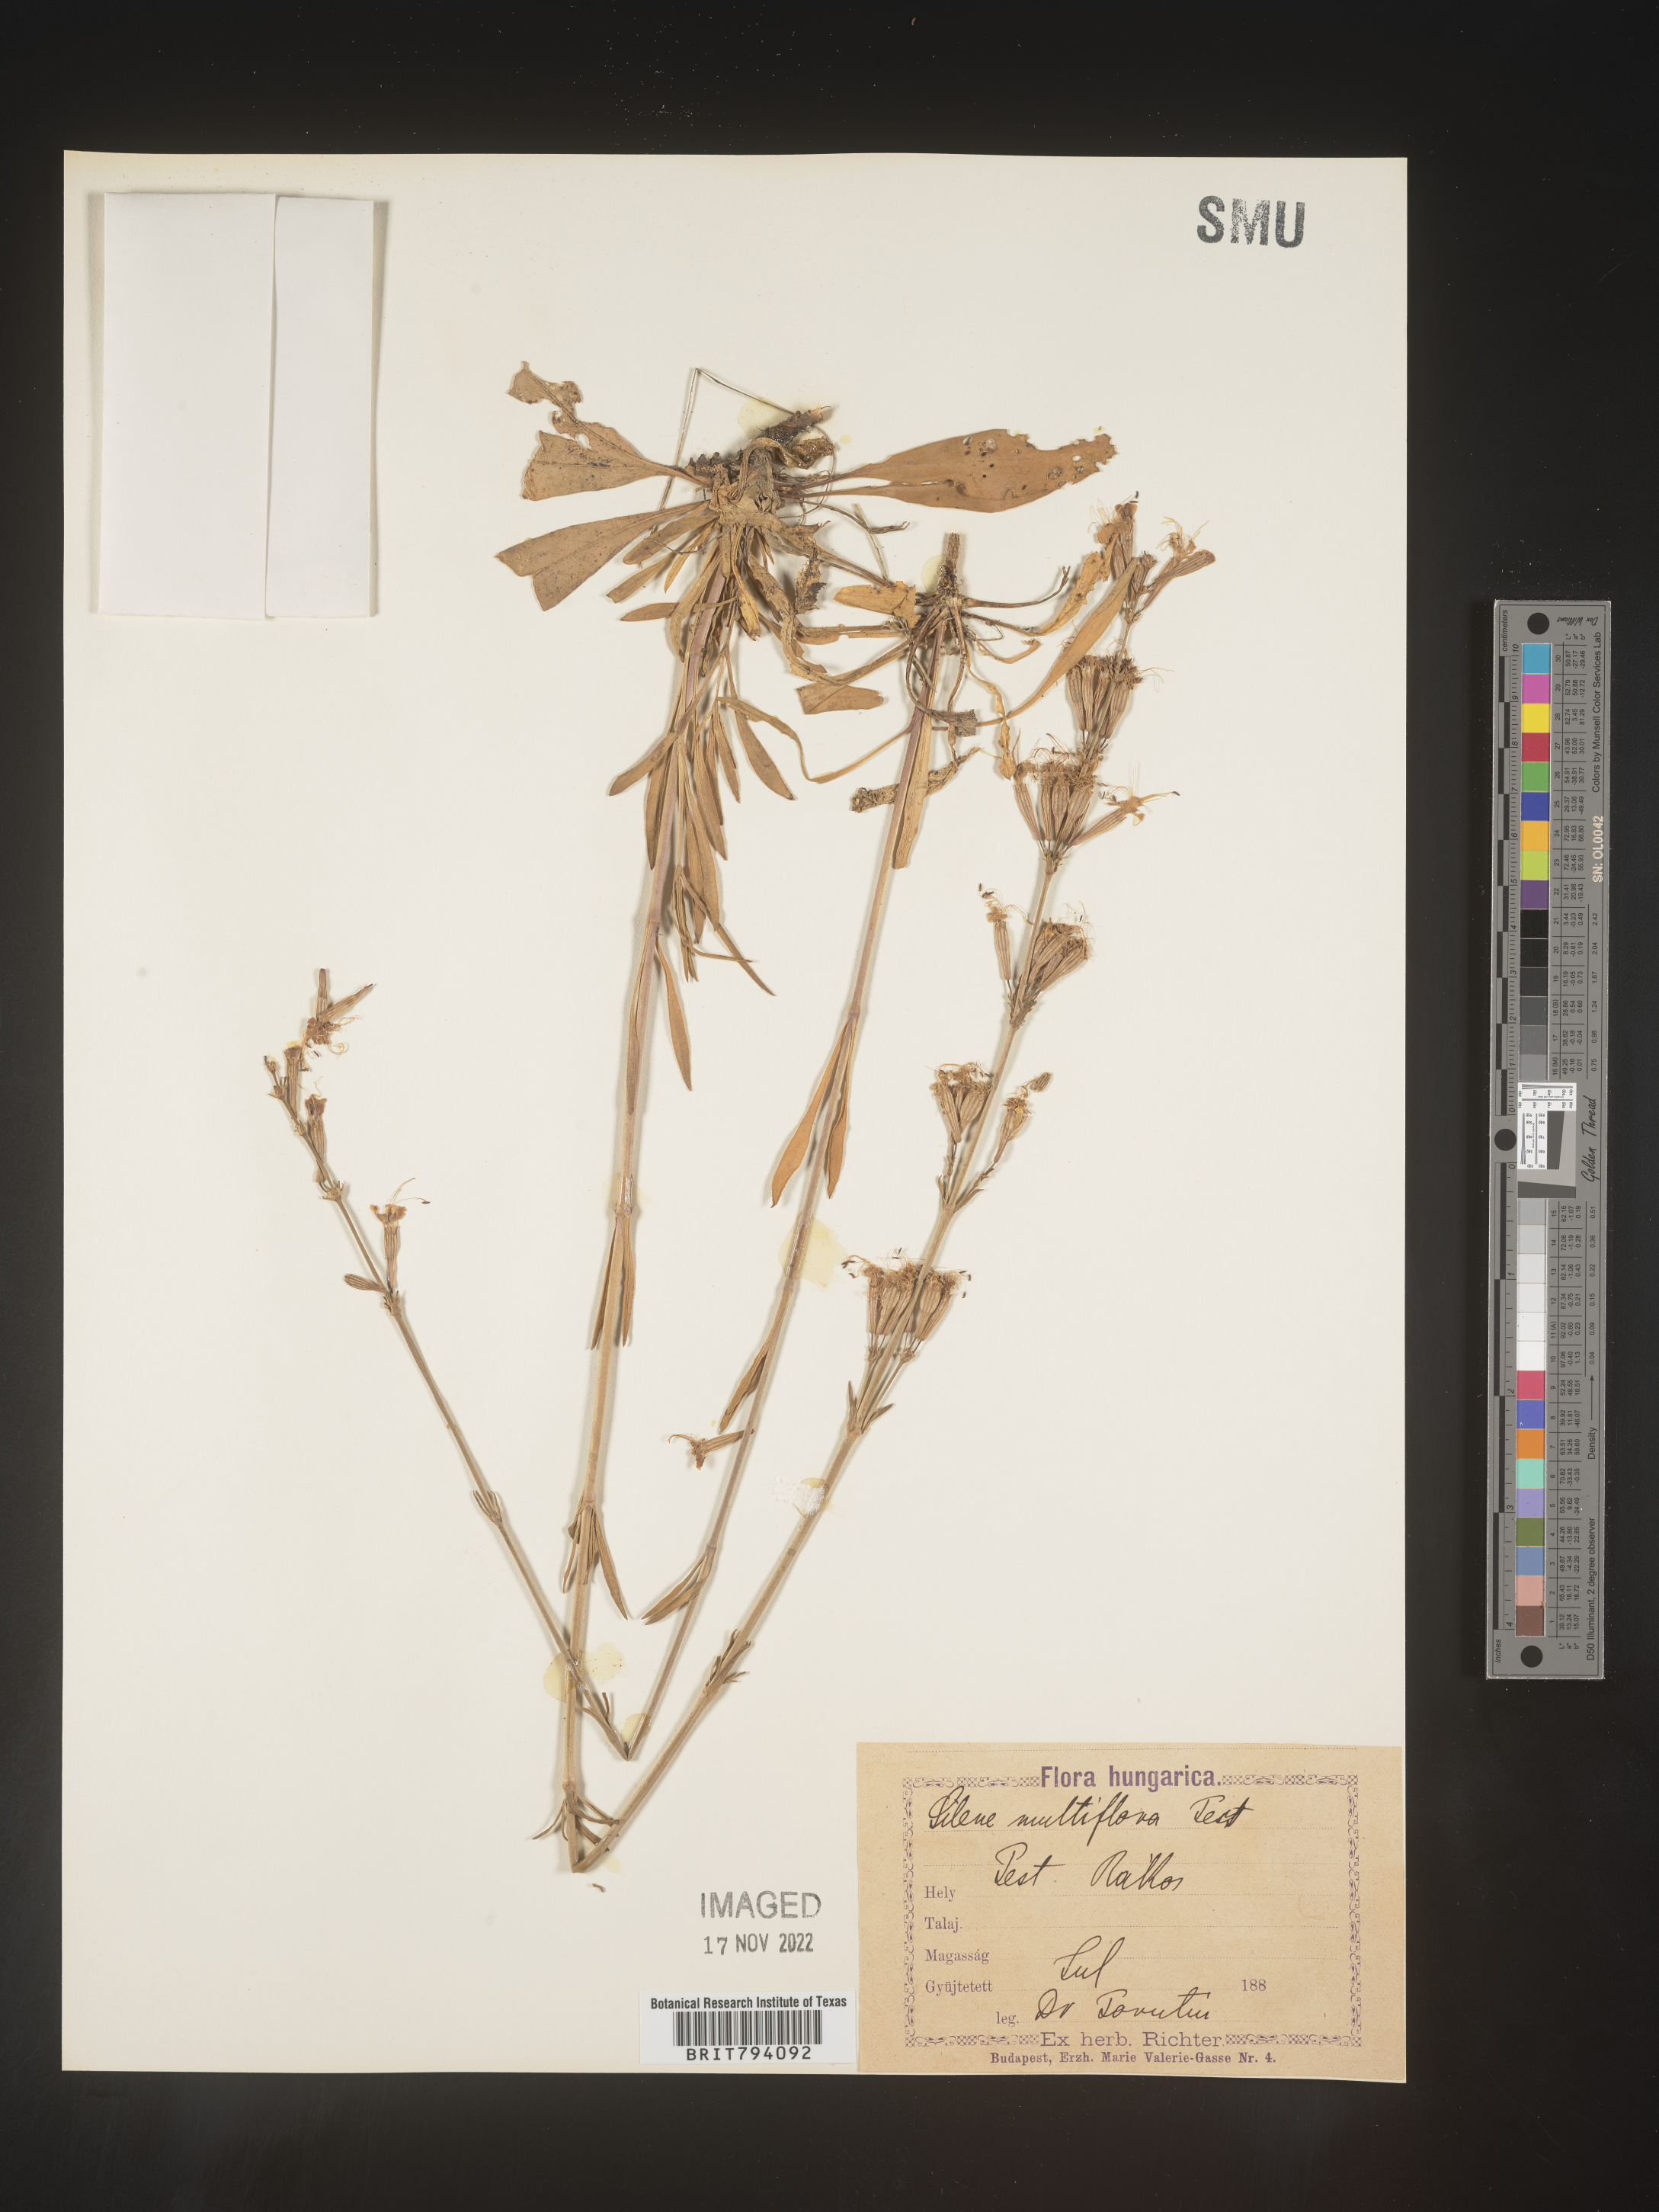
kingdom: Plantae
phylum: Tracheophyta
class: Magnoliopsida
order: Caryophyllales
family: Caryophyllaceae
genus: Silene
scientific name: Silene multiflora
